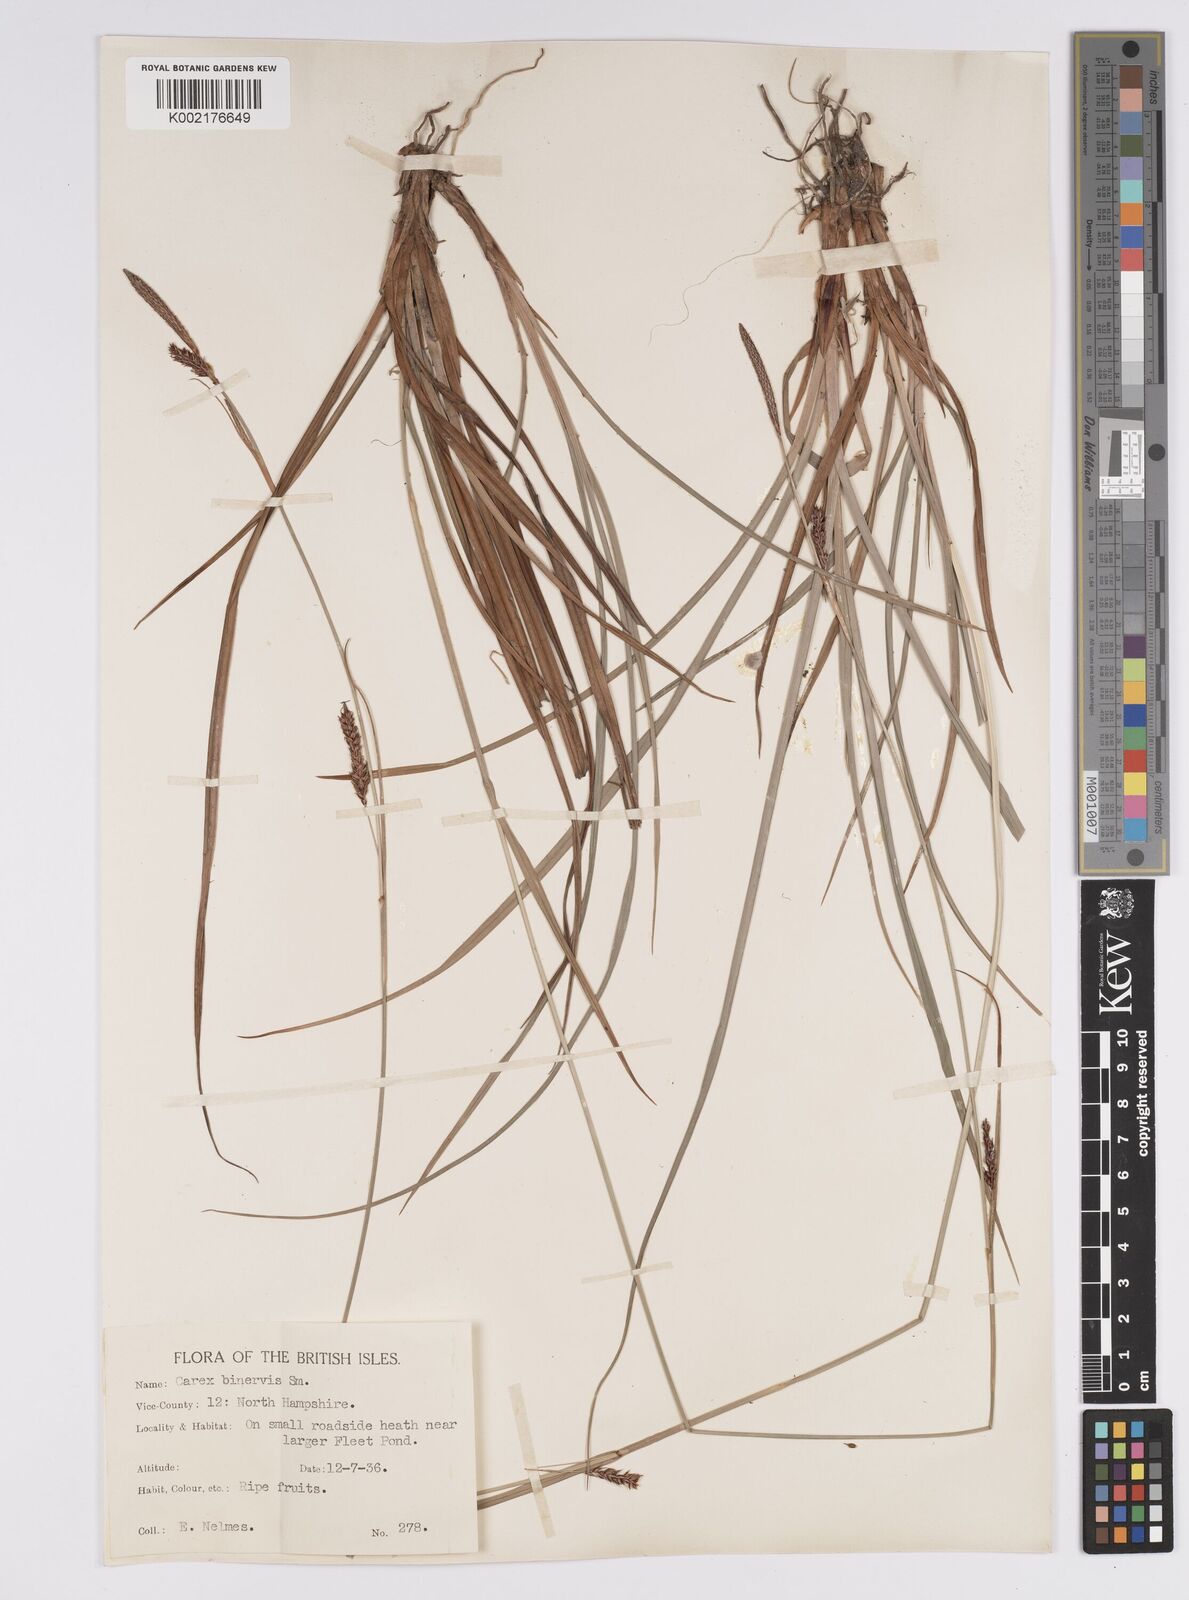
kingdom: Plantae
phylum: Tracheophyta
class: Liliopsida
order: Poales
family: Cyperaceae
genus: Carex
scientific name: Carex binervis
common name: Green-ribbed sedge
